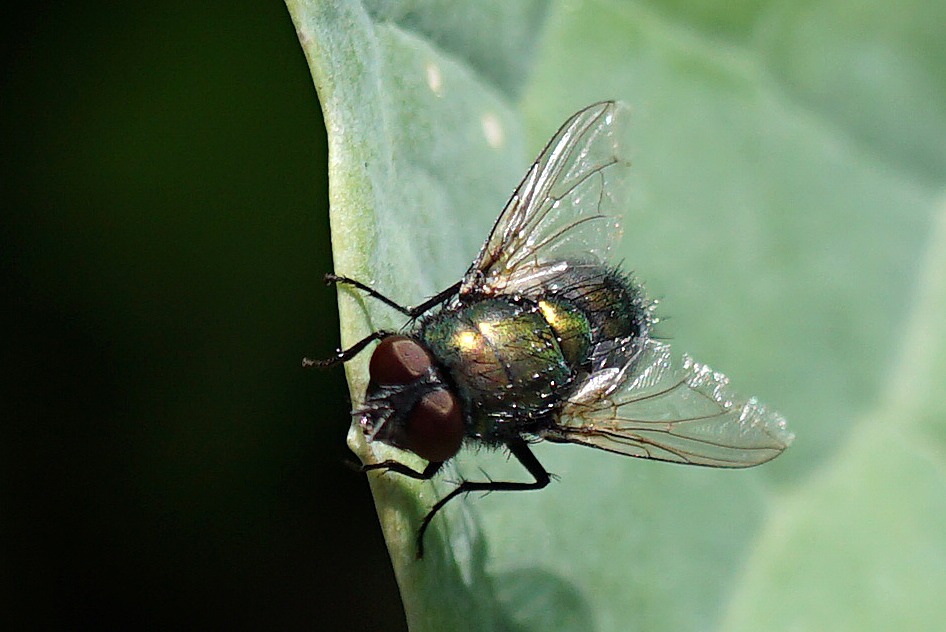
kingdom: Animalia
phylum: Arthropoda
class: Insecta
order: Diptera
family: Calliphoridae
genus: Lucilia
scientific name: Lucilia silvarum
